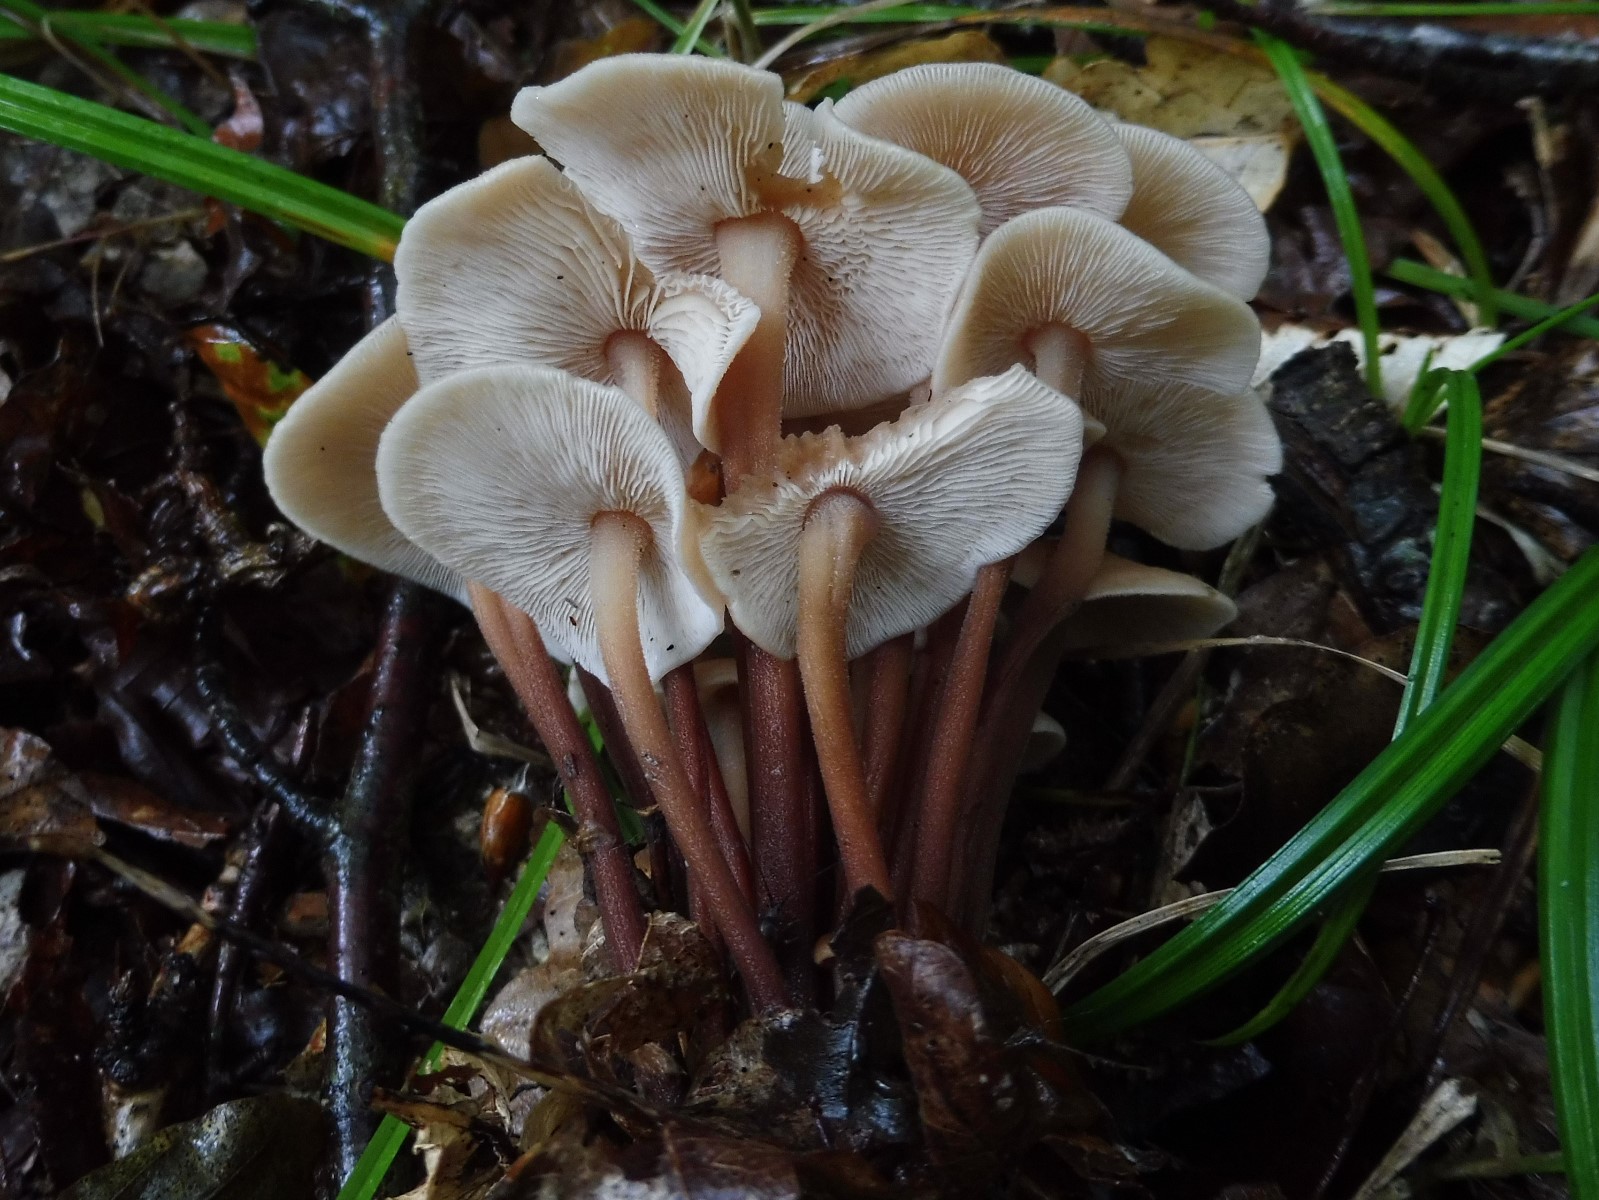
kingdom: Fungi
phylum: Basidiomycota
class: Agaricomycetes
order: Agaricales
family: Omphalotaceae
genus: Collybiopsis
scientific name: Collybiopsis confluens
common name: knippe-fladhat
